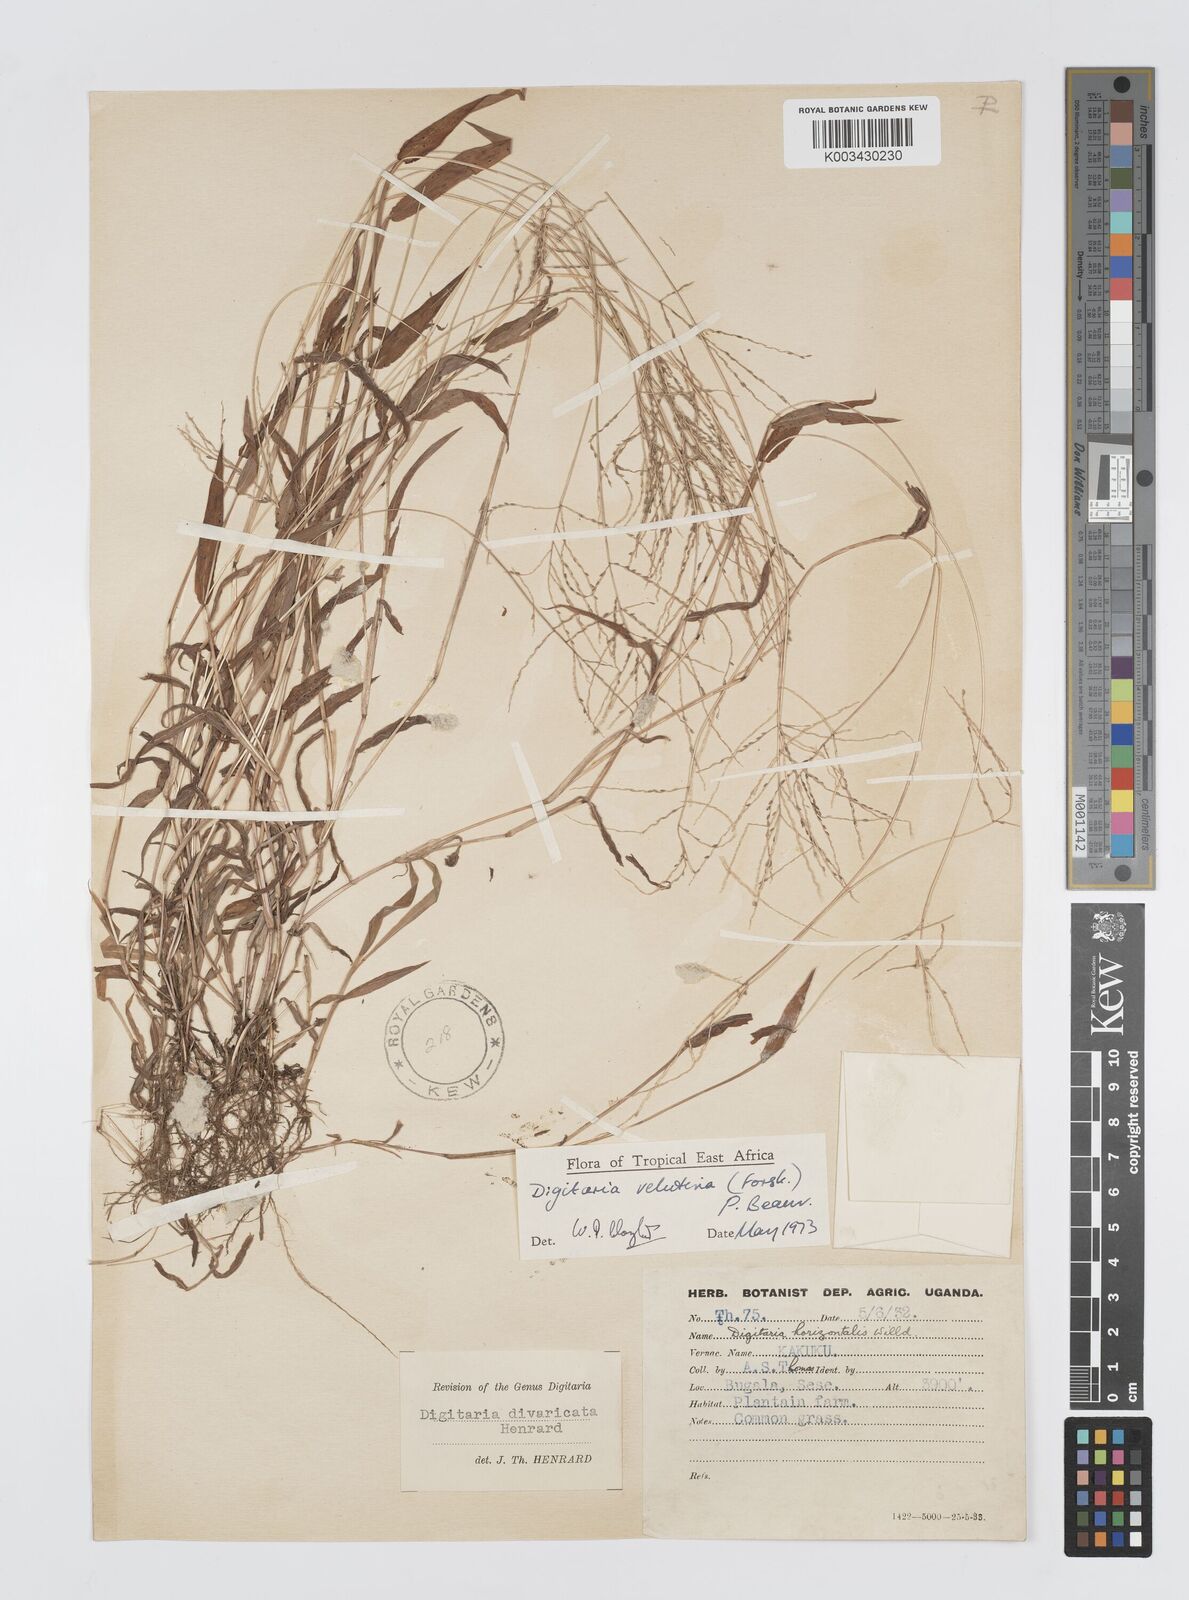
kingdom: Plantae
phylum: Tracheophyta
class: Liliopsida
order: Poales
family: Poaceae
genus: Digitaria
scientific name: Digitaria velutina
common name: Long-plume finger grass
